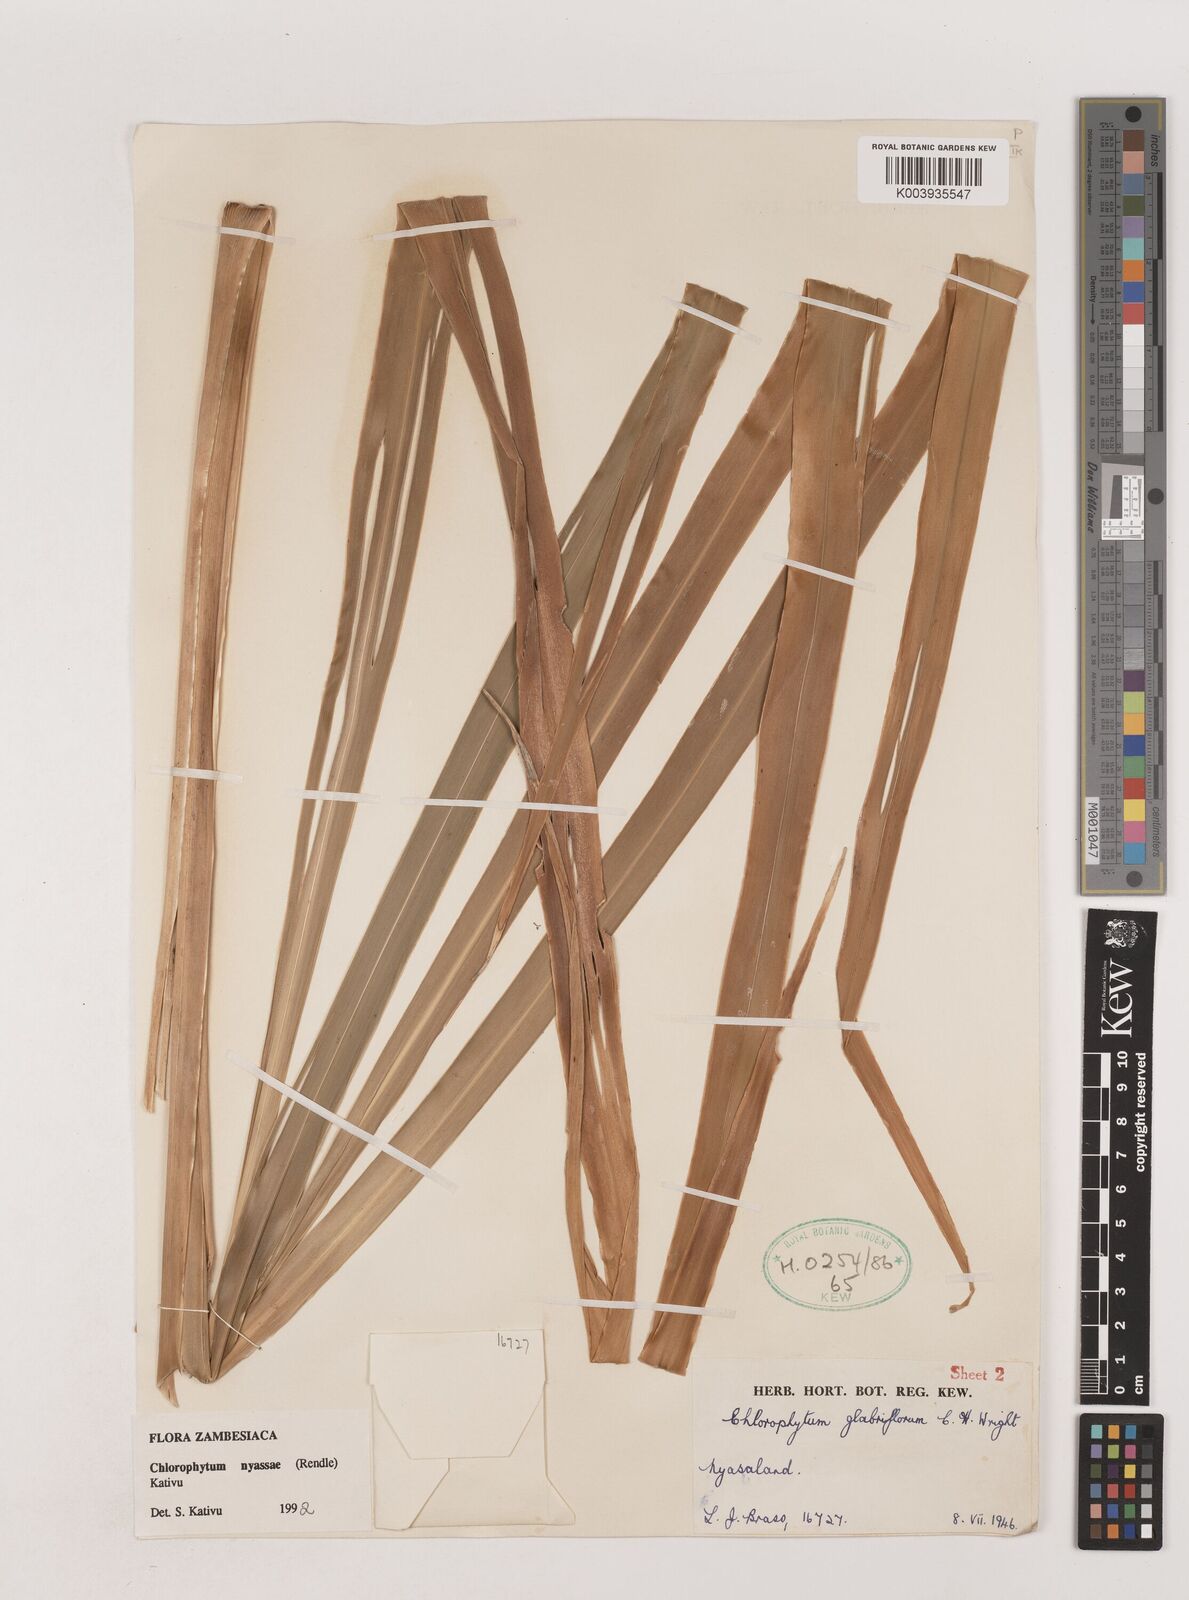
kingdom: Plantae
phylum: Tracheophyta
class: Liliopsida
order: Asparagales
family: Asparagaceae
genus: Chlorophytum
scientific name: Chlorophytum nyasae
